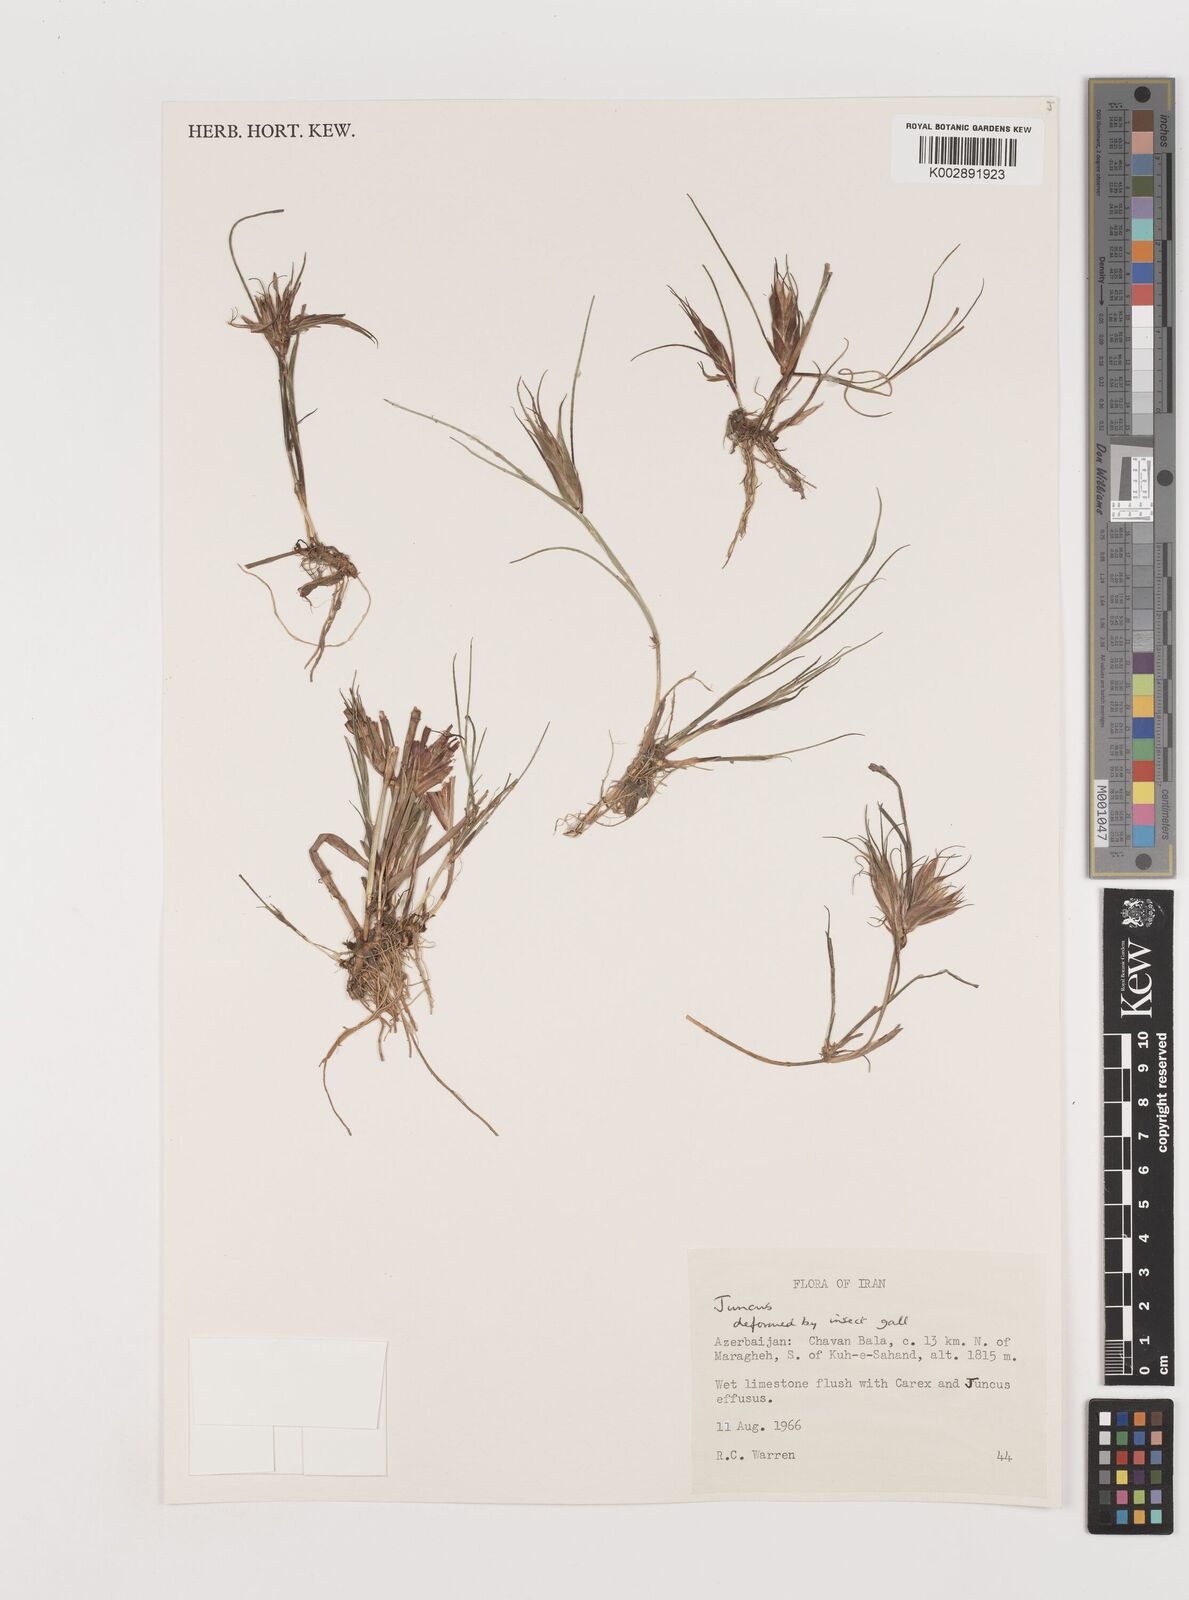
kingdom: Plantae
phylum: Tracheophyta
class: Liliopsida
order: Poales
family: Juncaceae
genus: Juncus
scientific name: Juncus
